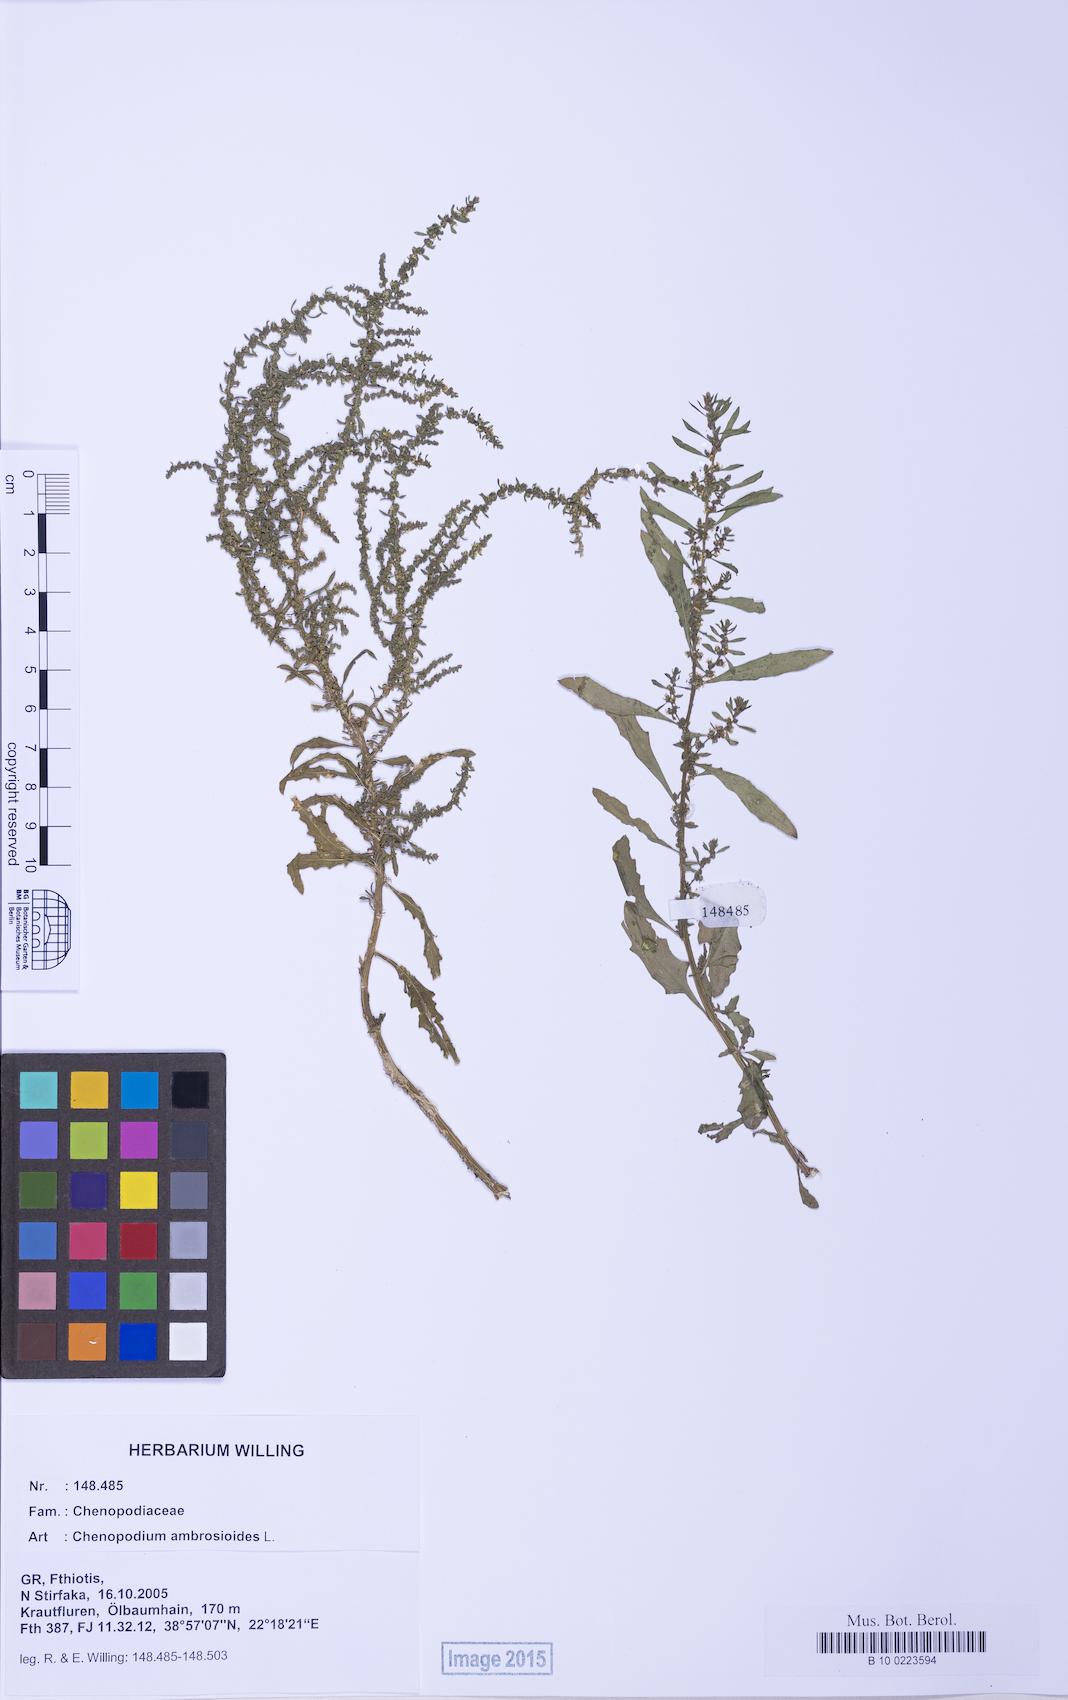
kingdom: Plantae
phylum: Tracheophyta
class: Magnoliopsida
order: Caryophyllales
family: Amaranthaceae
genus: Dysphania
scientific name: Dysphania ambrosioides
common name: Wormseed
